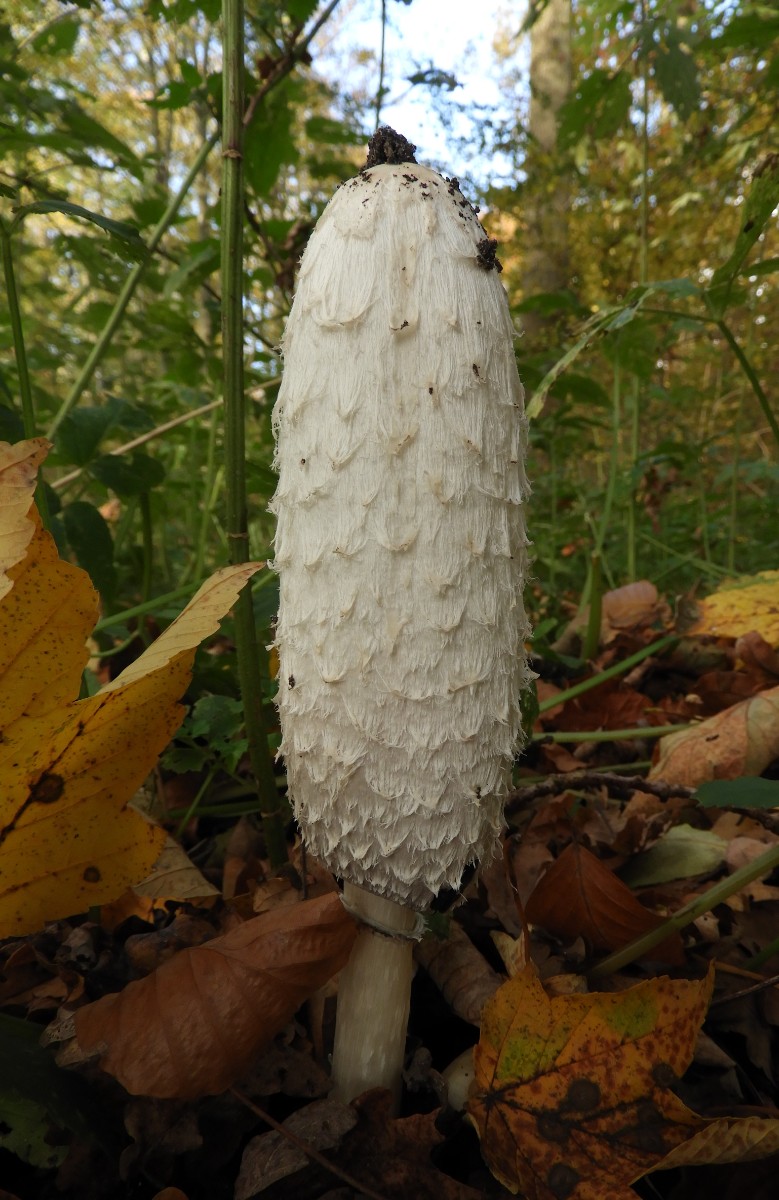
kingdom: Fungi
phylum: Basidiomycota
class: Agaricomycetes
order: Agaricales
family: Agaricaceae
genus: Coprinus
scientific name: Coprinus comatus
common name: stor parykhat
